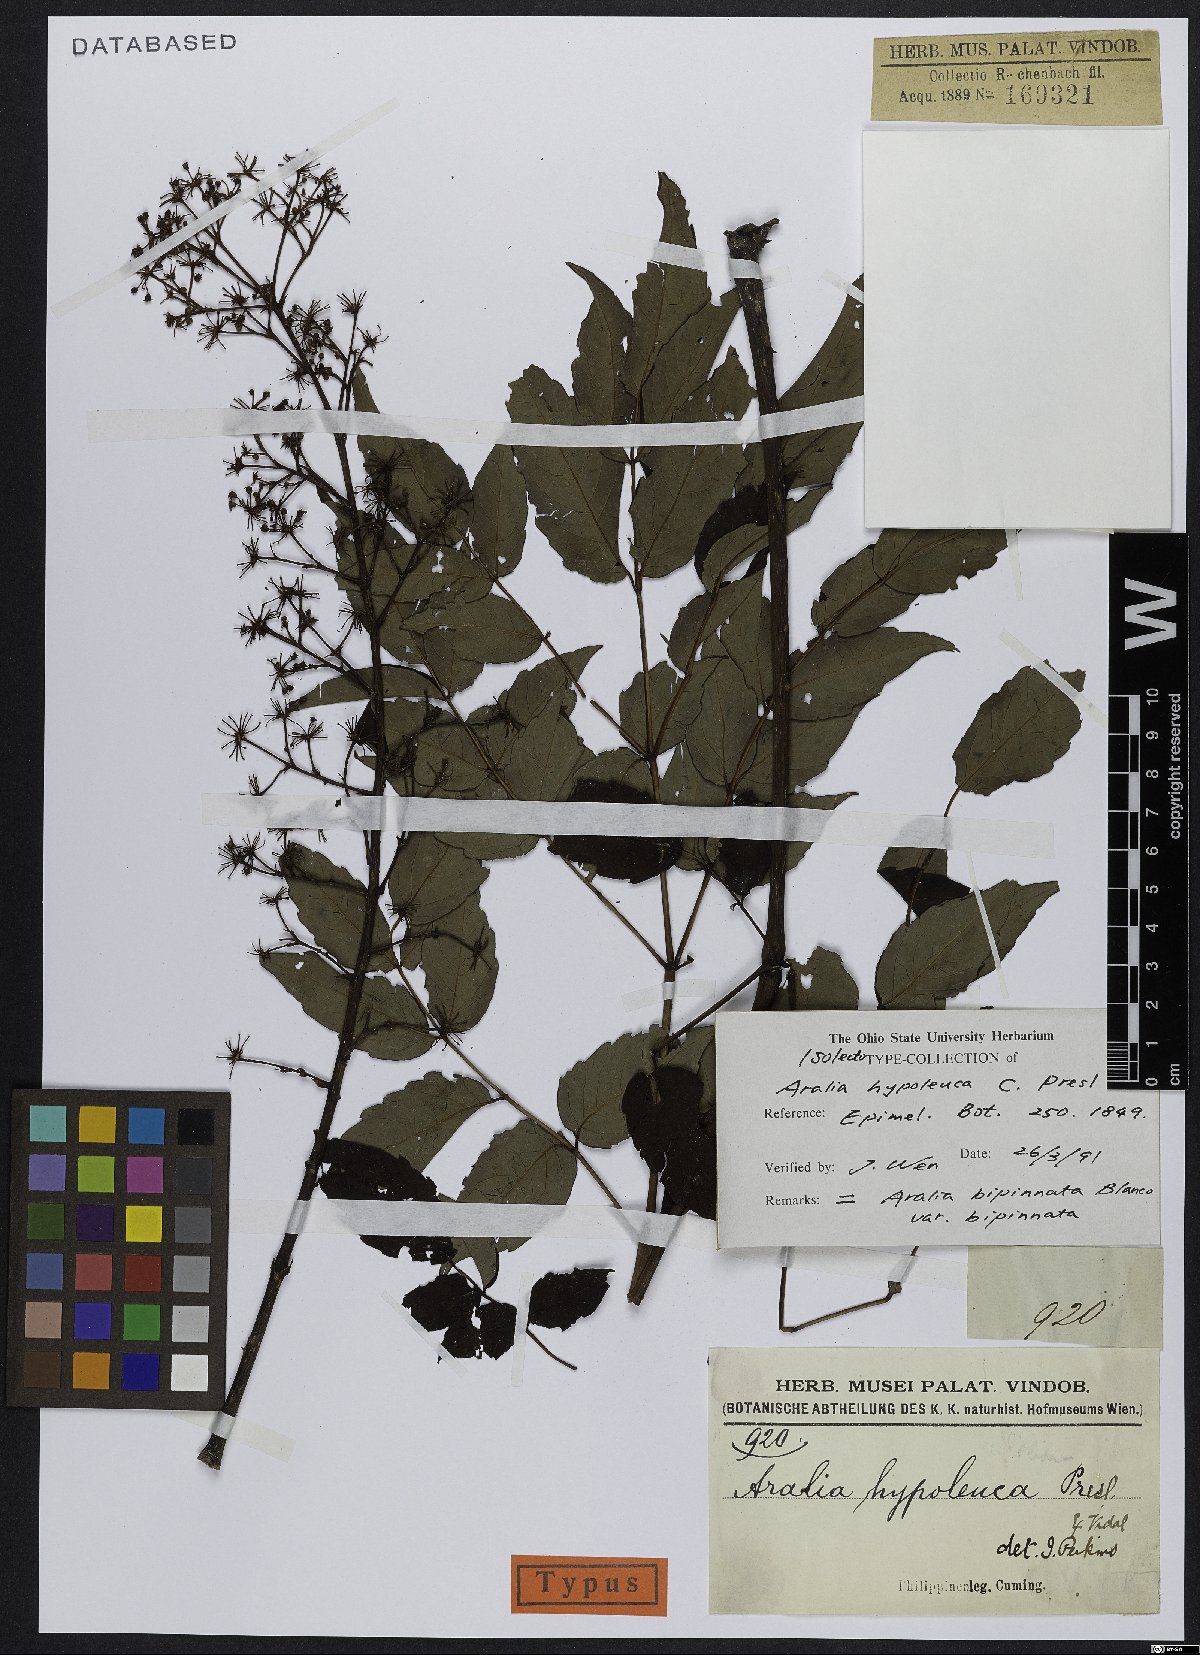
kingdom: Plantae
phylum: Tracheophyta
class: Magnoliopsida
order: Apiales
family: Araliaceae
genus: Aralia
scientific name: Aralia bipinnata
